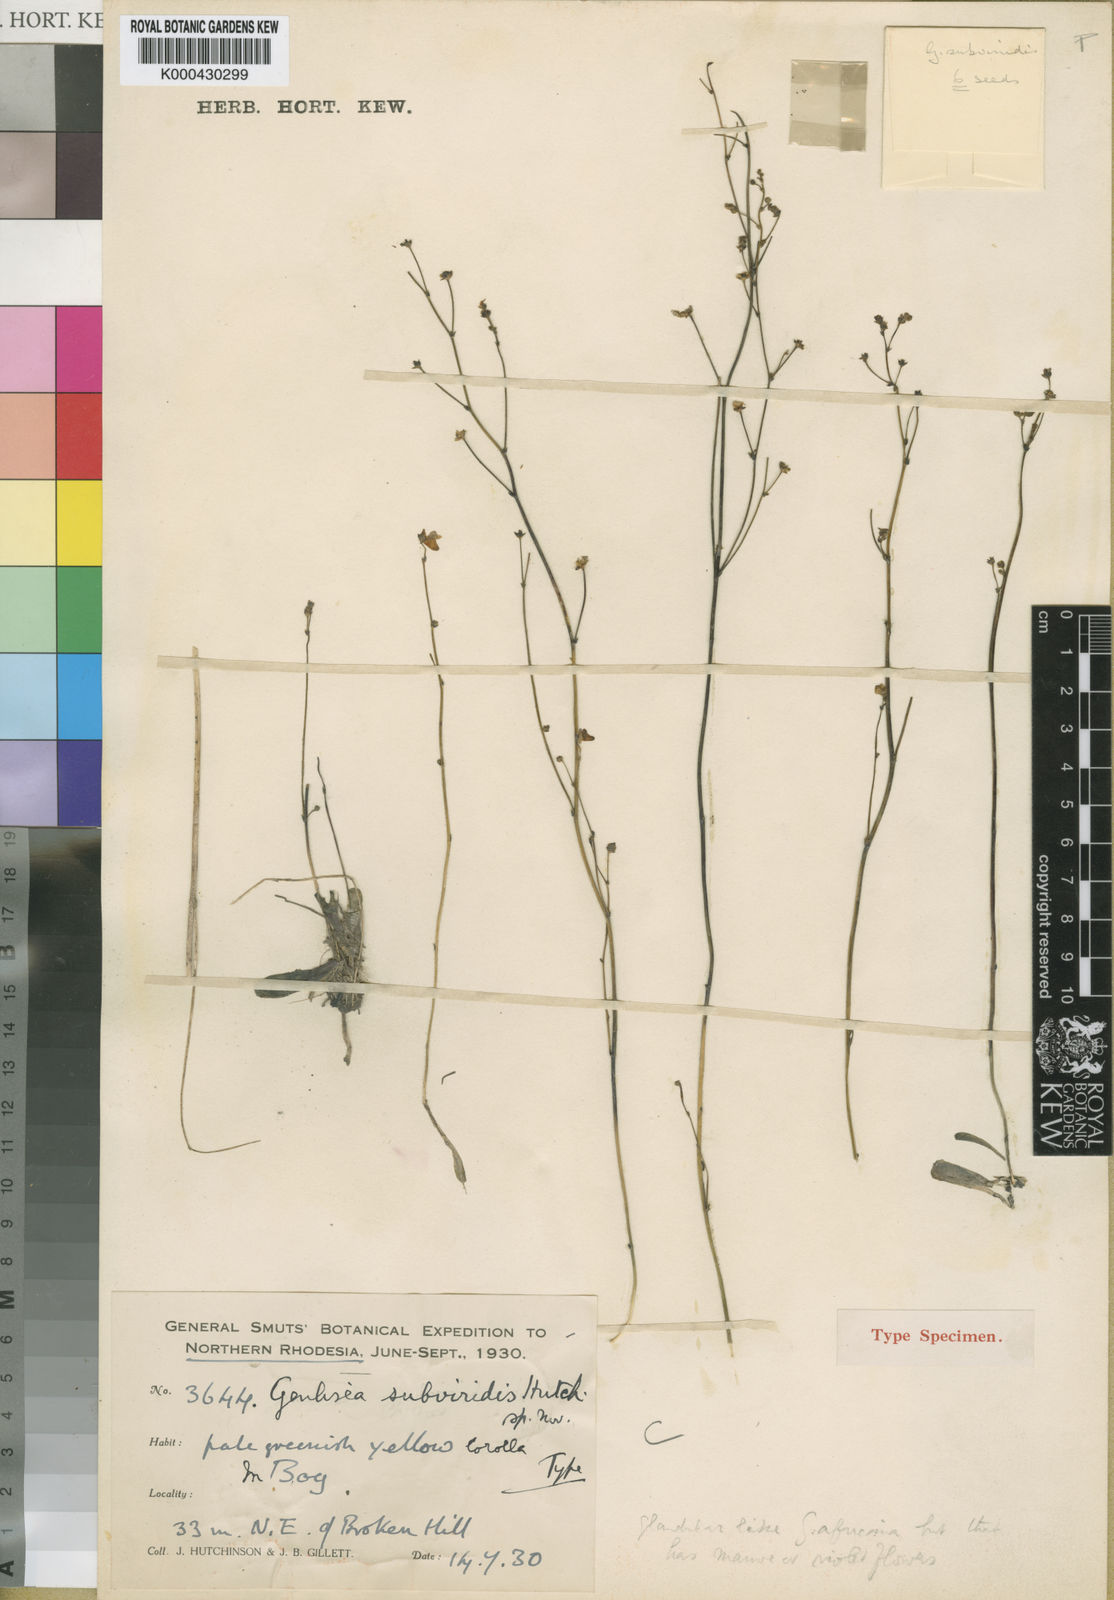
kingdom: Plantae
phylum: Tracheophyta
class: Magnoliopsida
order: Lamiales
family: Lentibulariaceae
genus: Genlisea
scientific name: Genlisea africana
